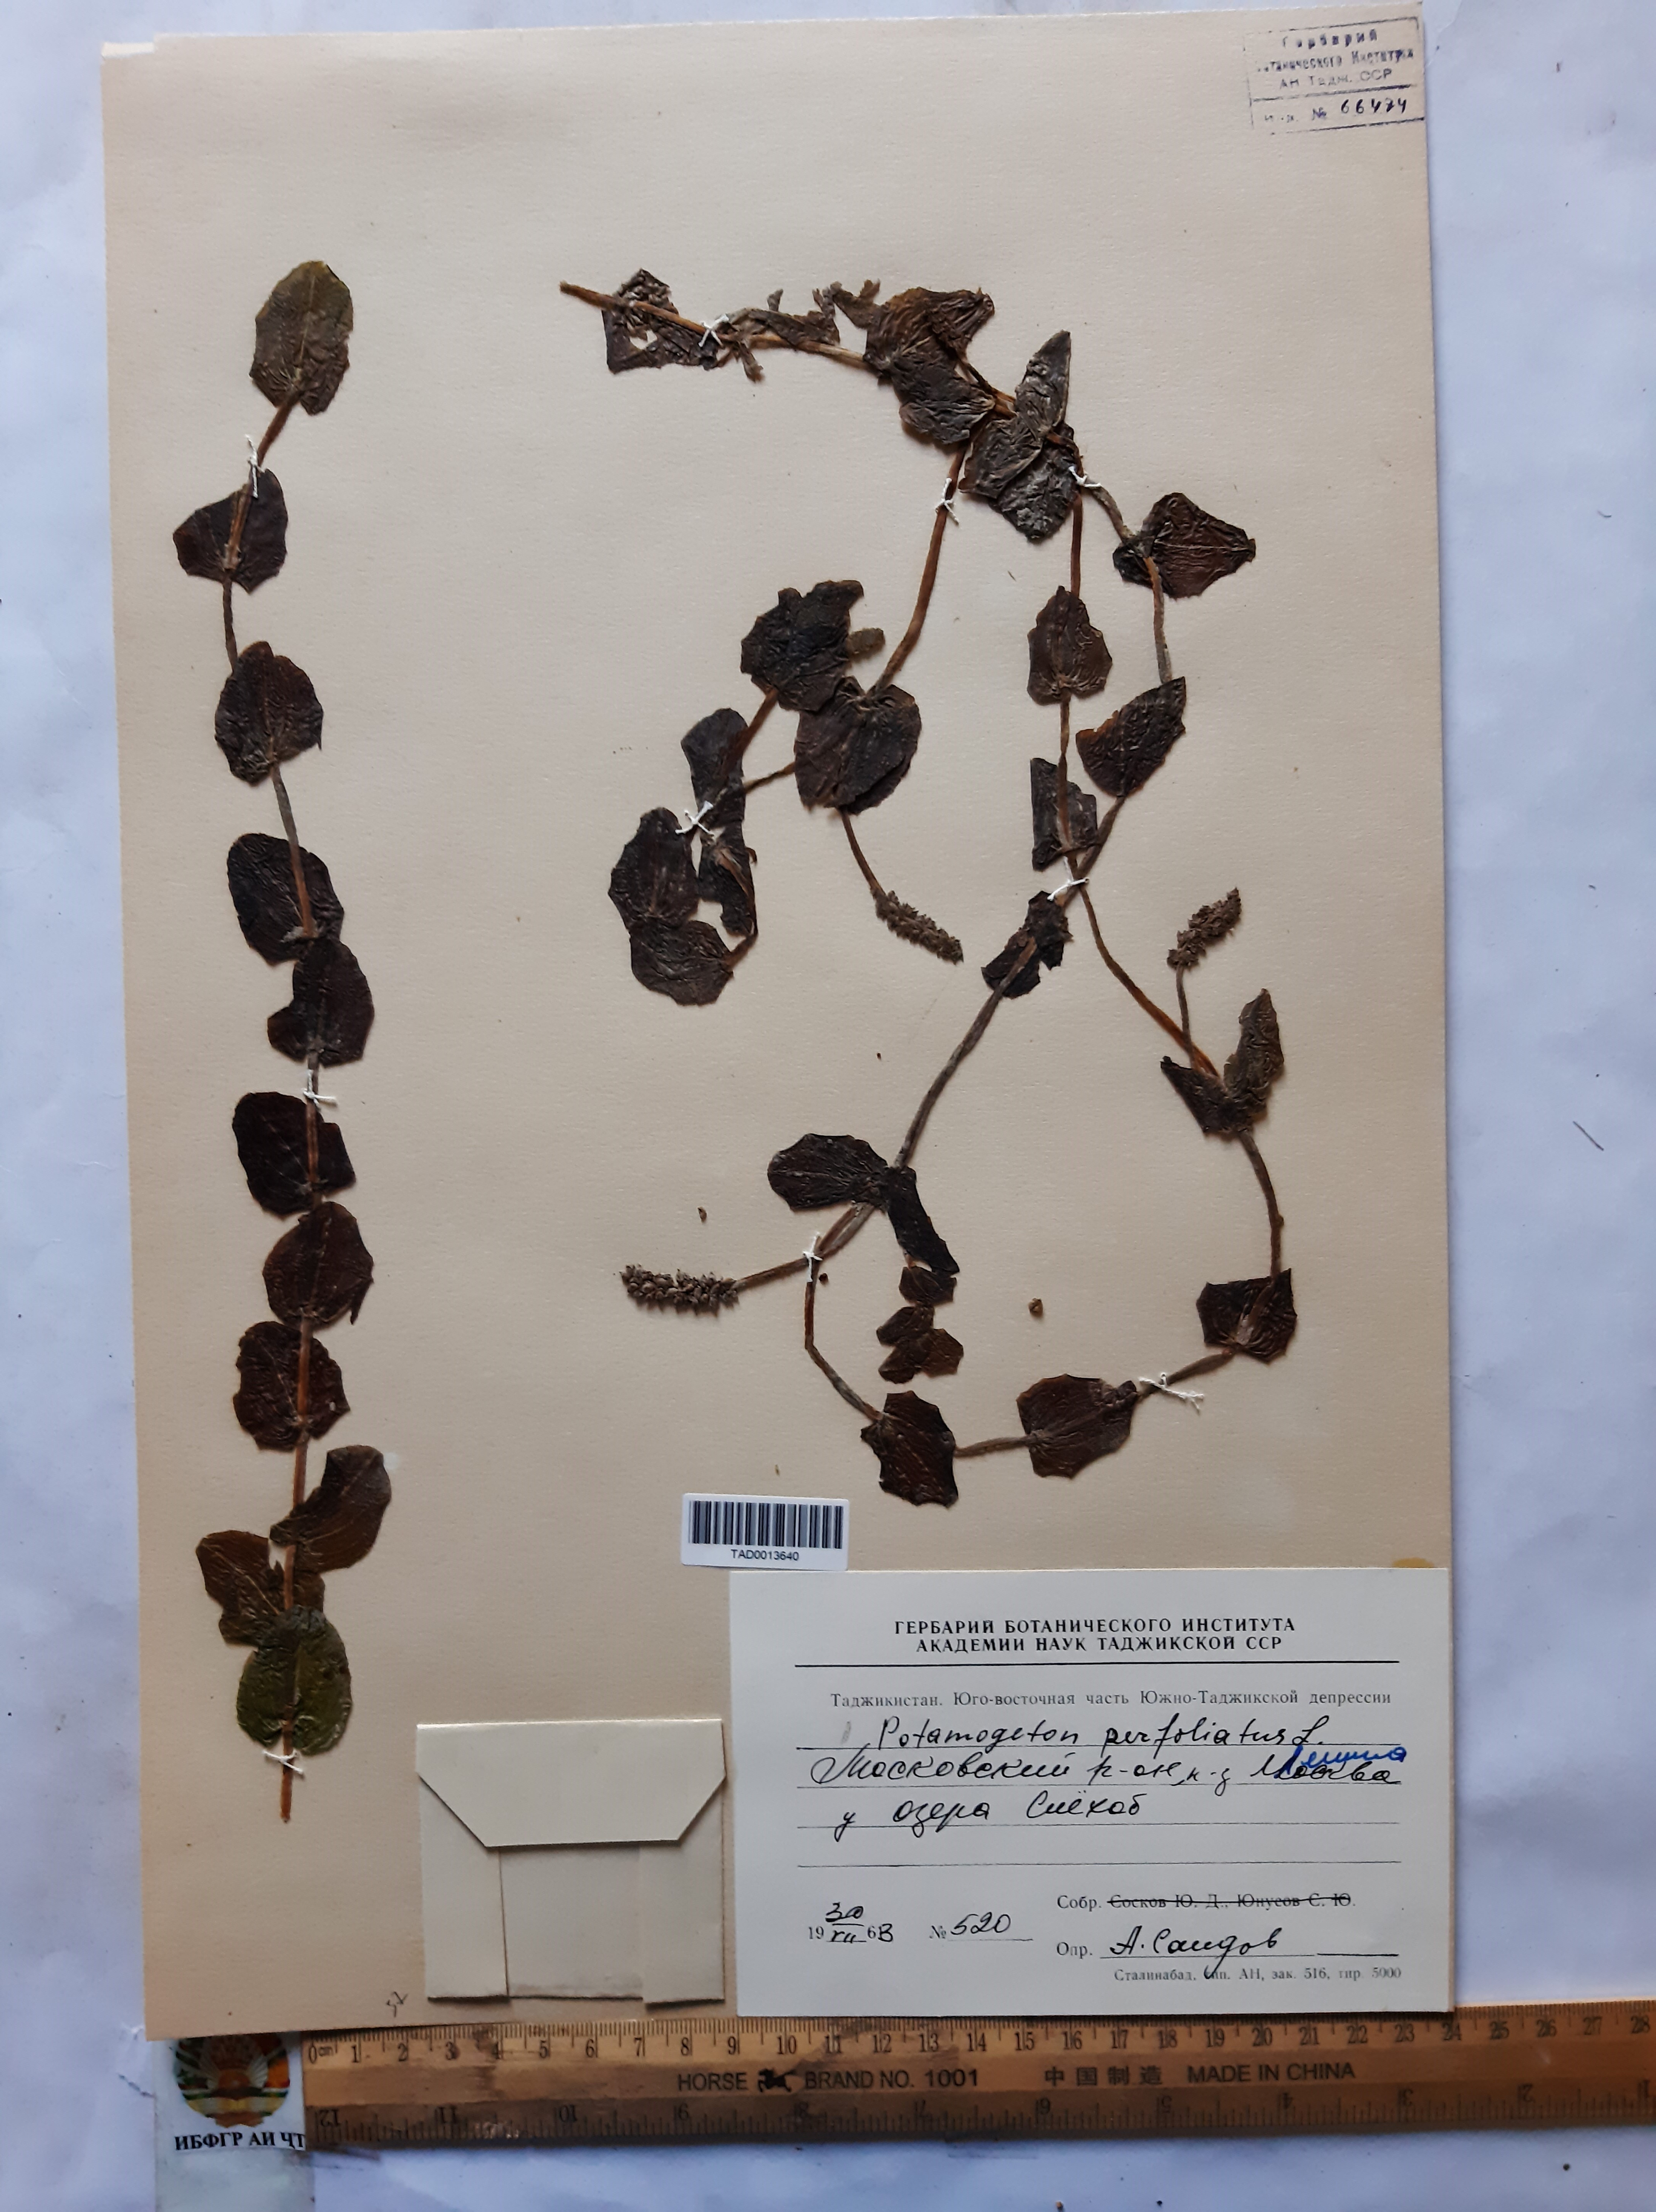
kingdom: Plantae
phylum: Tracheophyta
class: Liliopsida
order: Alismatales
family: Potamogetonaceae
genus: Potamogeton
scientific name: Potamogeton perfoliatus
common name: Perfoliate pondweed
